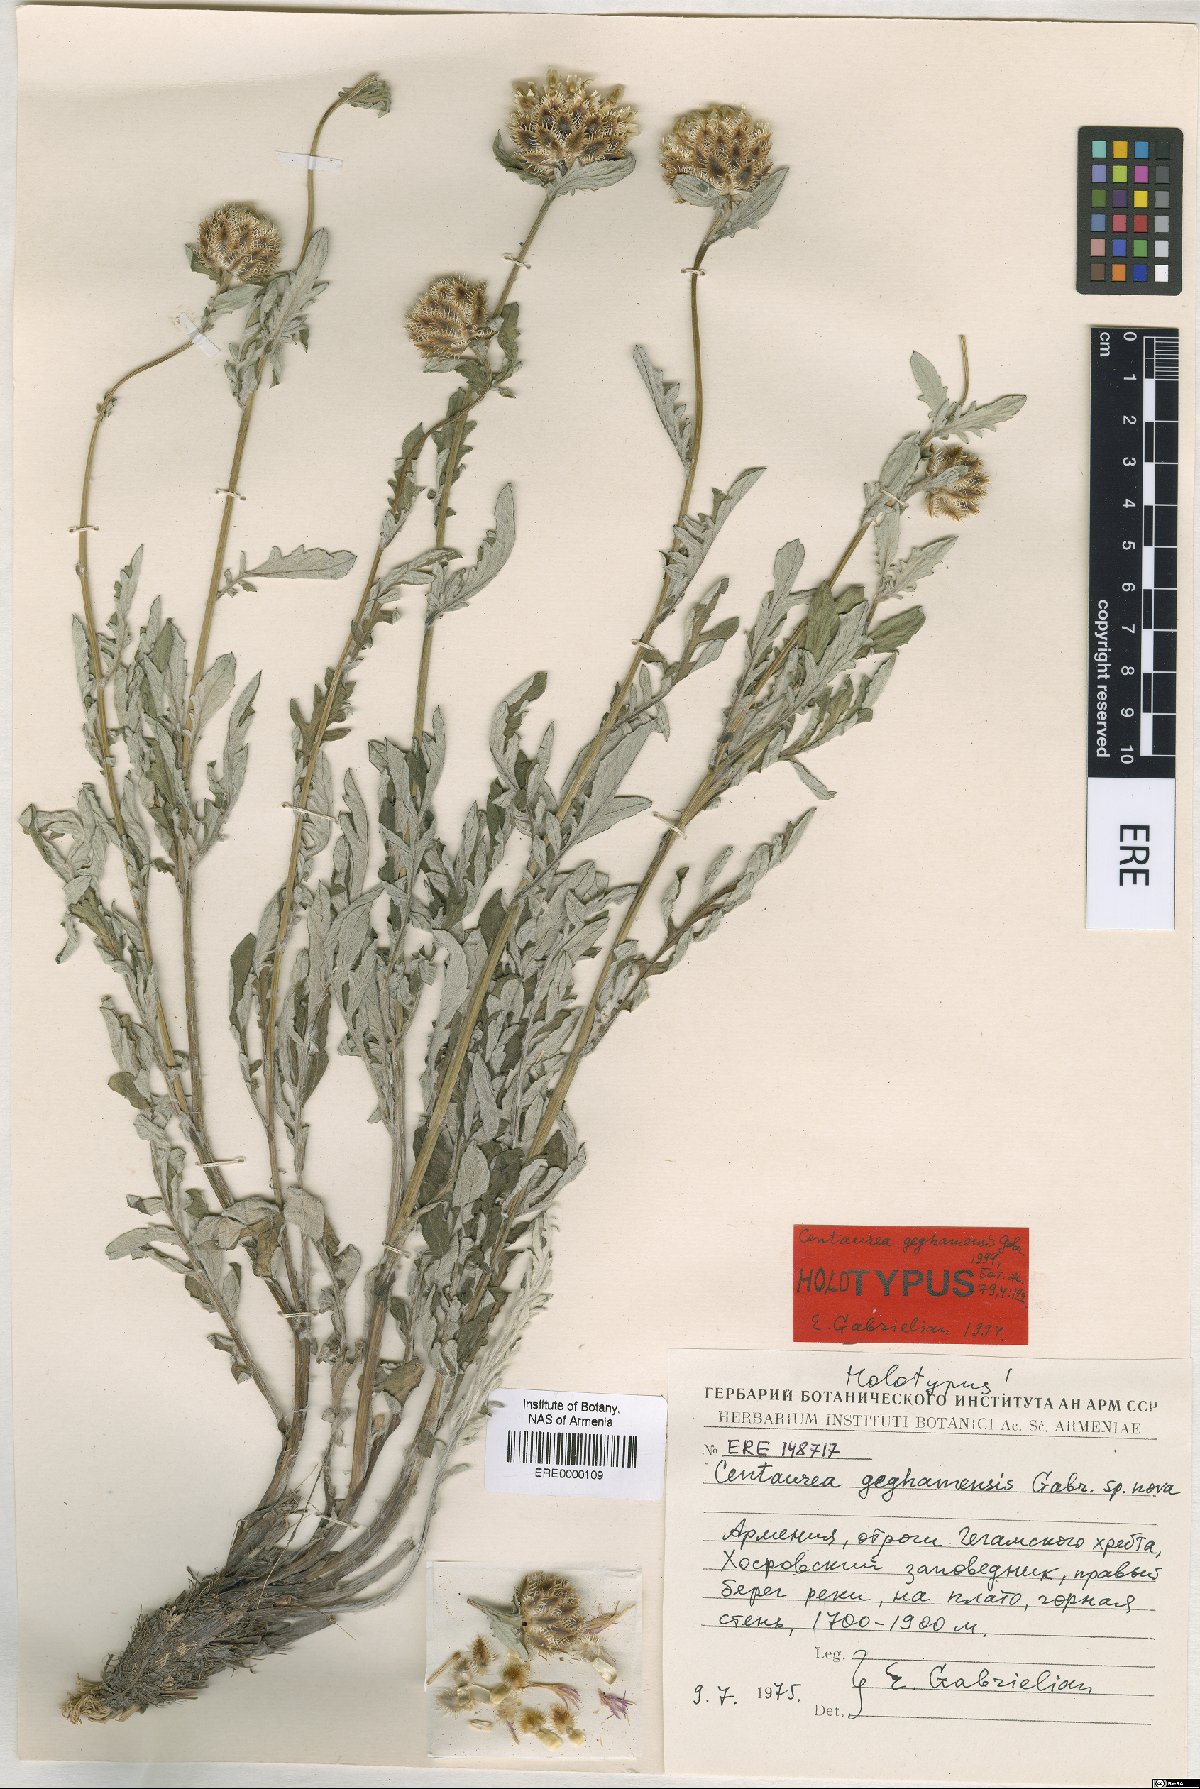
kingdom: Plantae
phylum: Tracheophyta
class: Magnoliopsida
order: Asterales
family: Asteraceae
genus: Psephellus
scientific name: Psephellus geghamensis
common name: Geghamian cornflower
